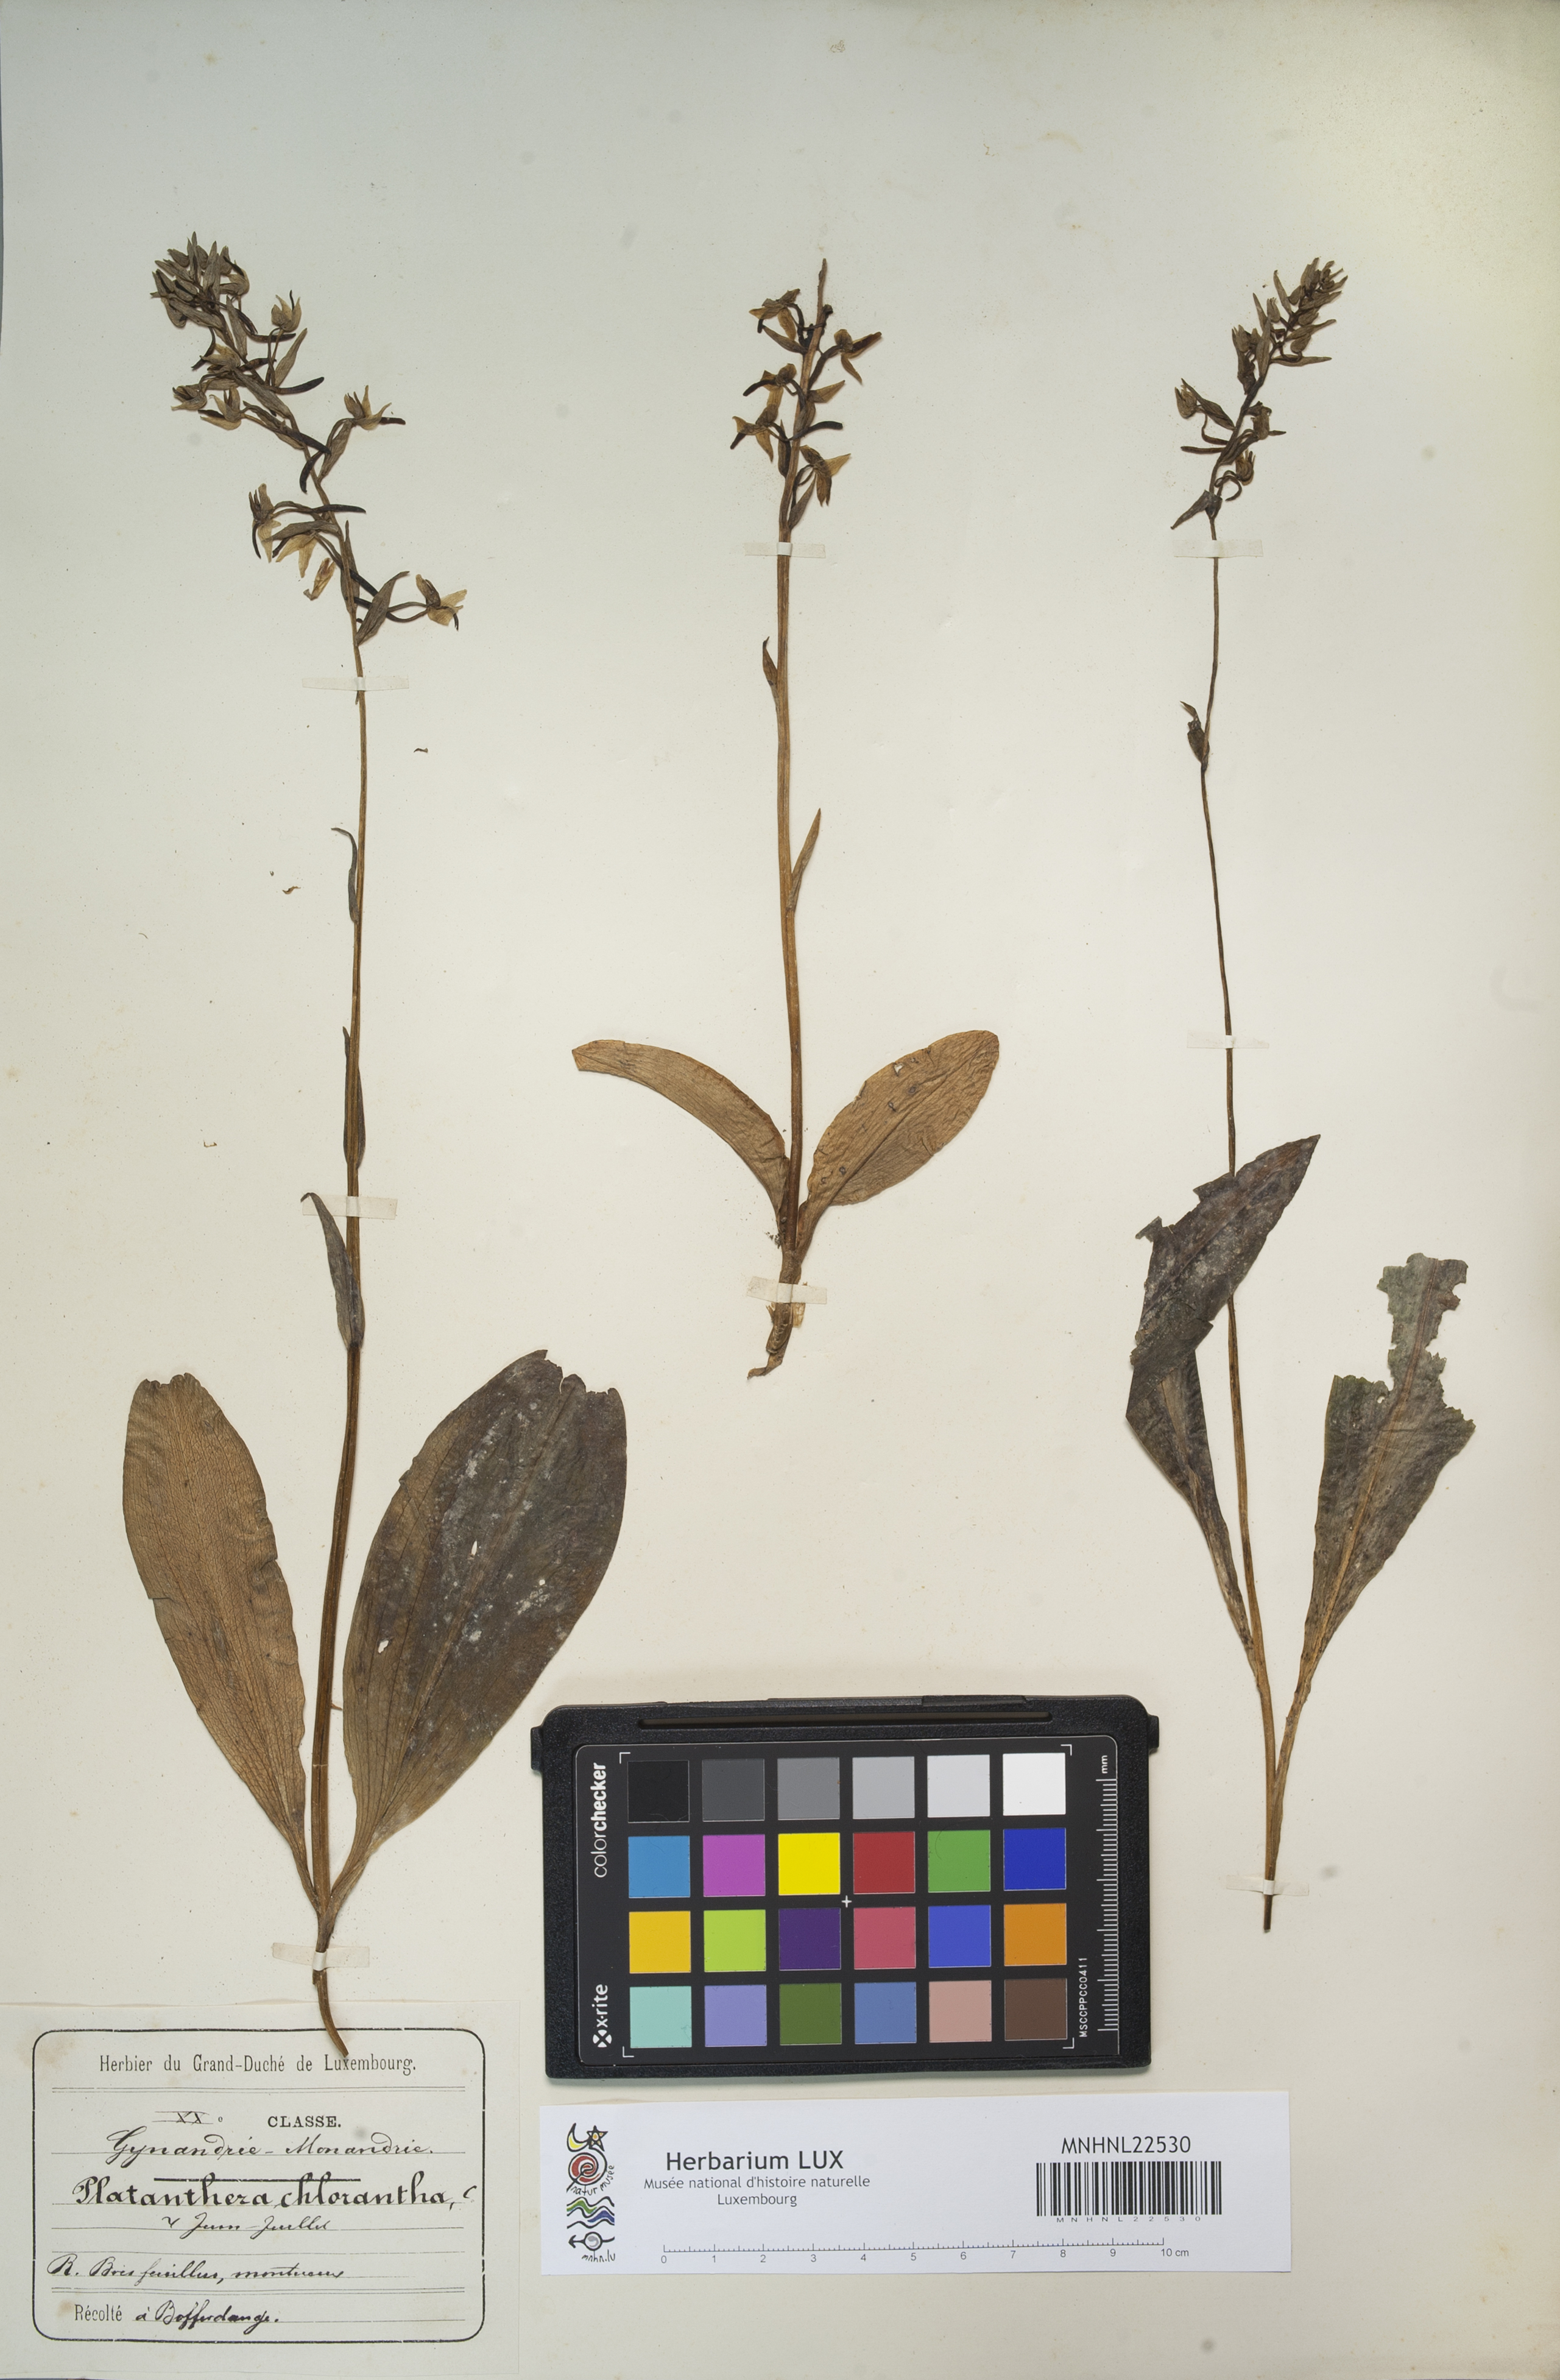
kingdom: Plantae
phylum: Tracheophyta
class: Liliopsida
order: Asparagales
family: Orchidaceae
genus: Platanthera
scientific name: Platanthera chlorantha
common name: Greater butterfly-orchid
